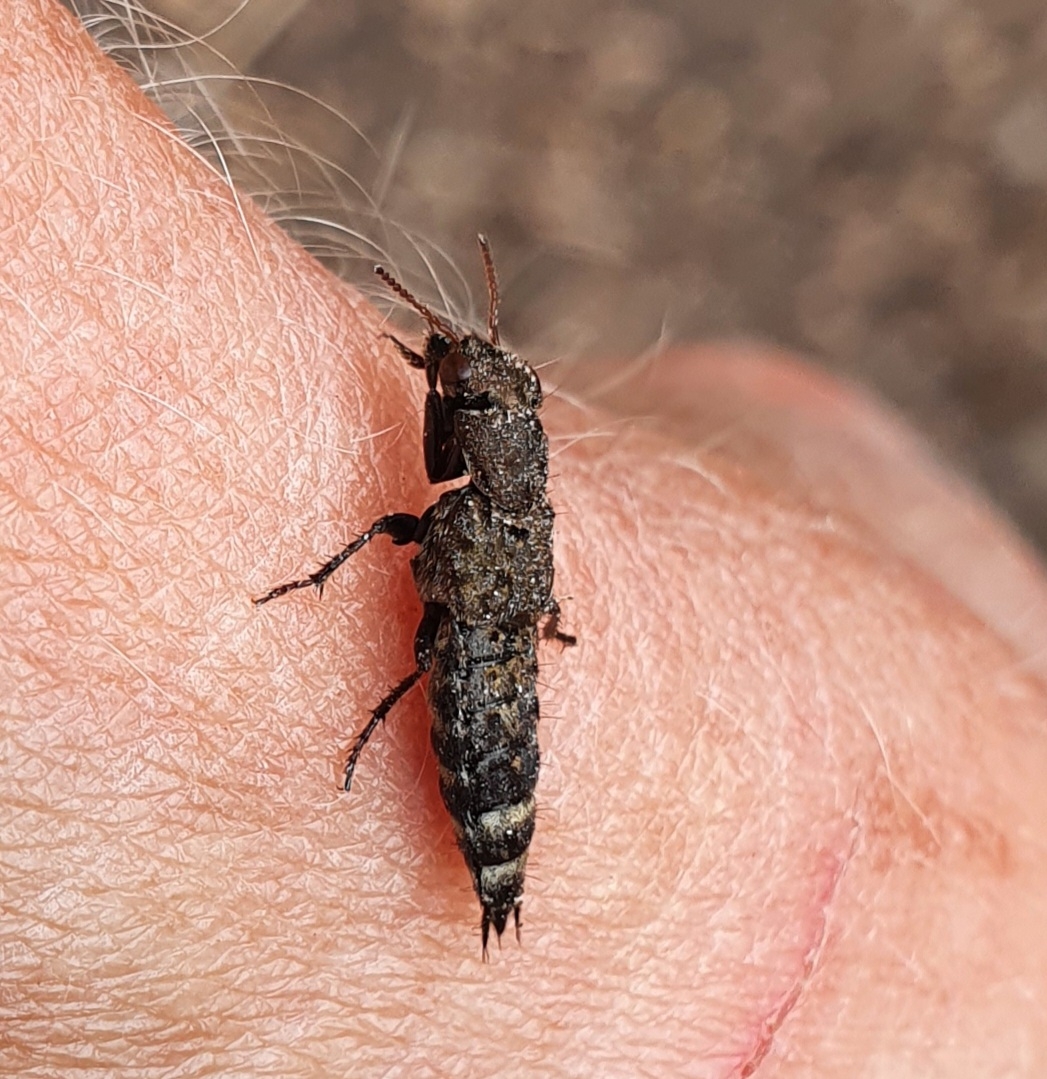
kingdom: Animalia
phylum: Arthropoda
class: Insecta
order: Coleoptera
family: Staphylinidae
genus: Ontholestes
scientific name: Ontholestes murinus
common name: Lille jagtrovbille
